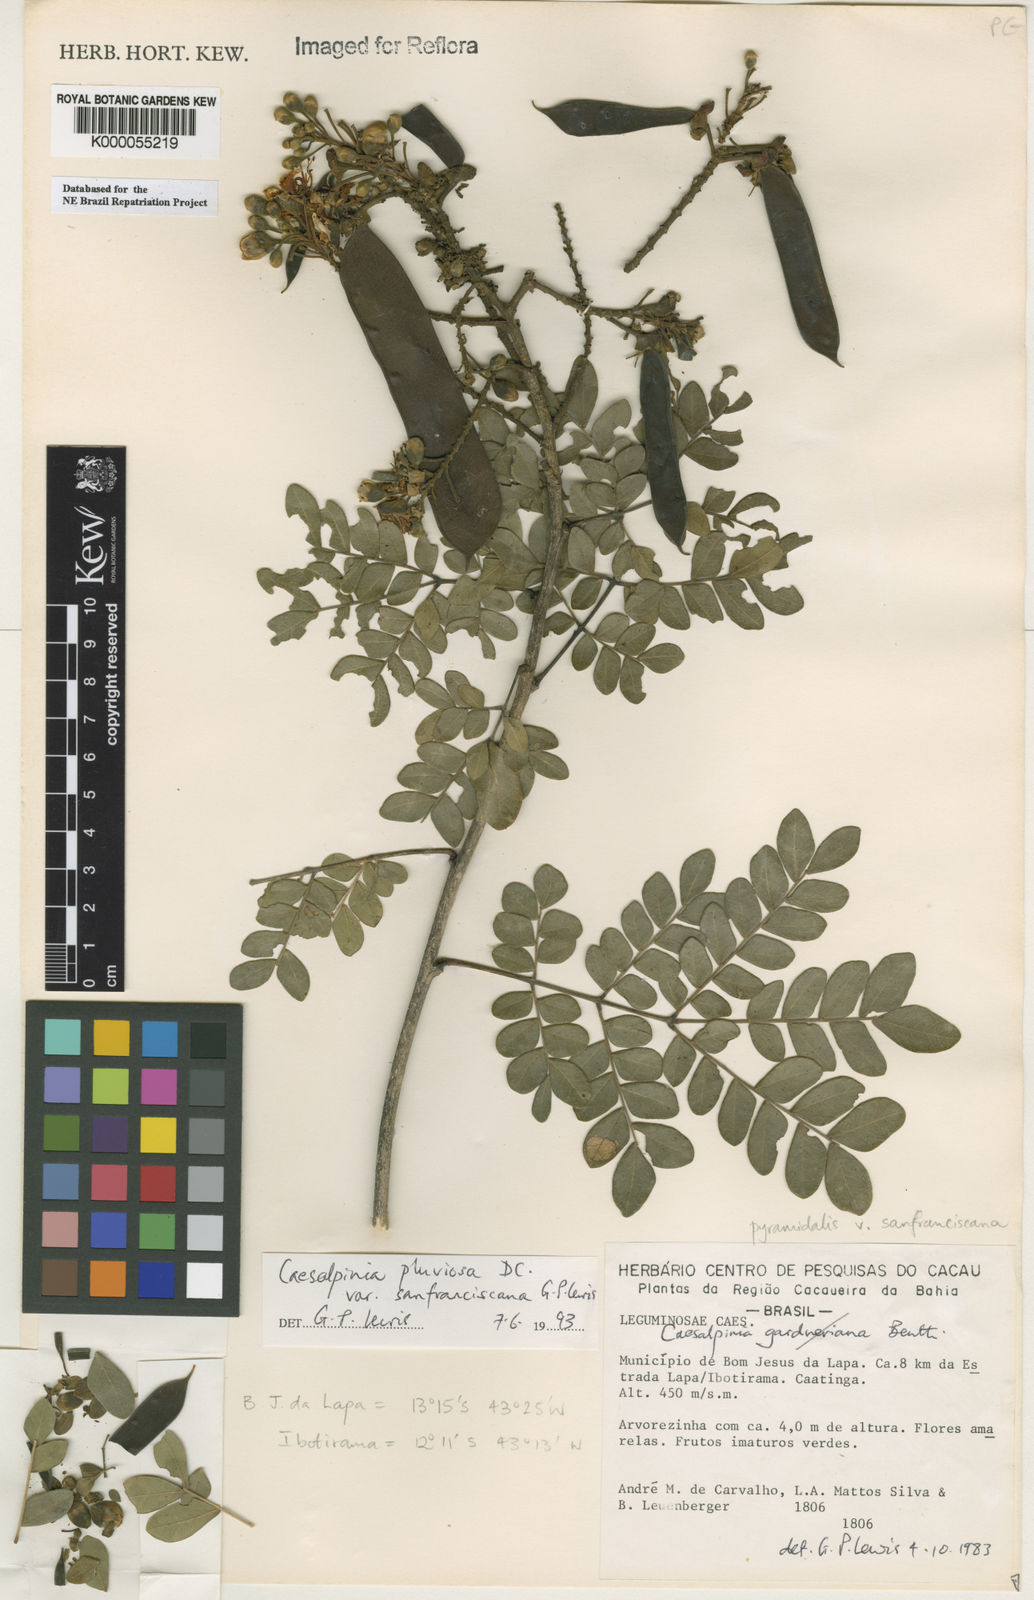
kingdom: Plantae
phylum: Tracheophyta
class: Magnoliopsida
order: Fabales
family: Fabaceae
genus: Cenostigma
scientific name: Cenostigma pluviosum
